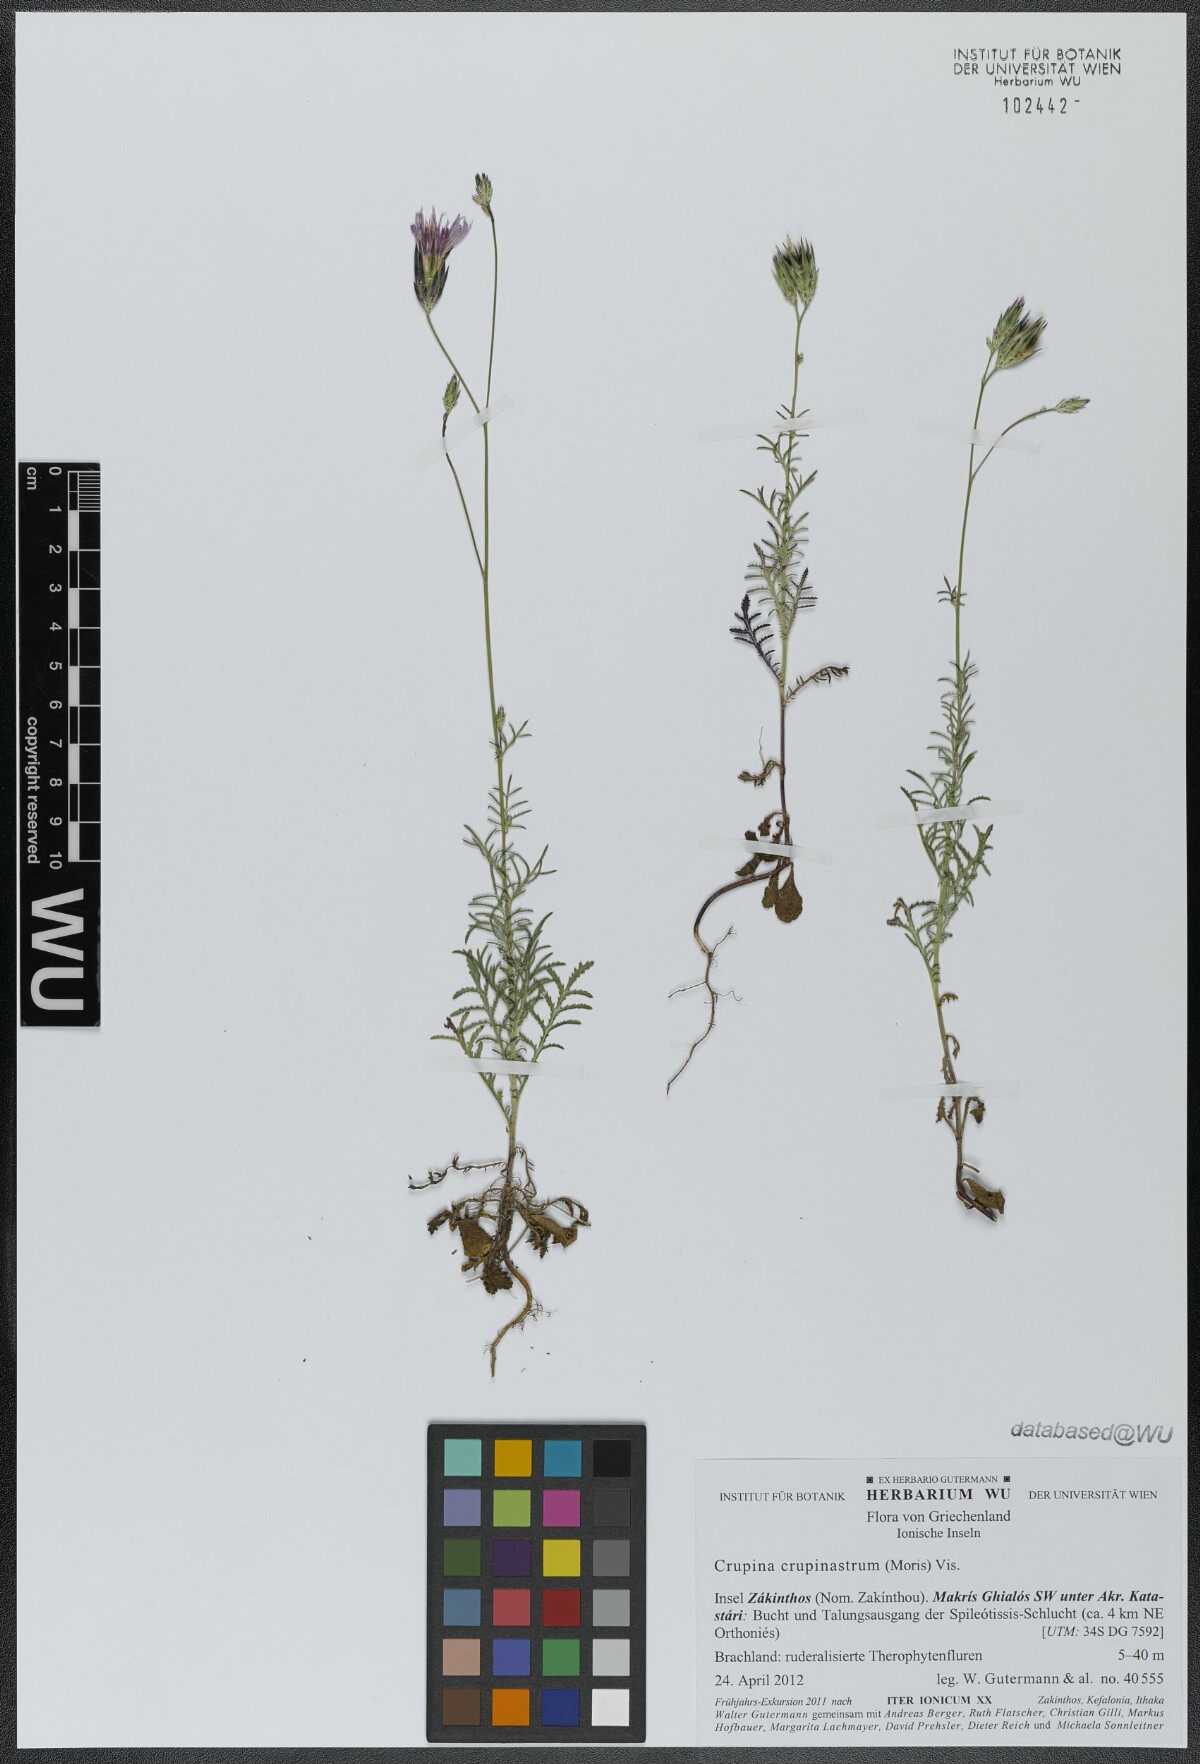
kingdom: Plantae
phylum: Tracheophyta
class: Magnoliopsida
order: Asterales
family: Asteraceae
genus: Crupina
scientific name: Crupina crupinastrum
